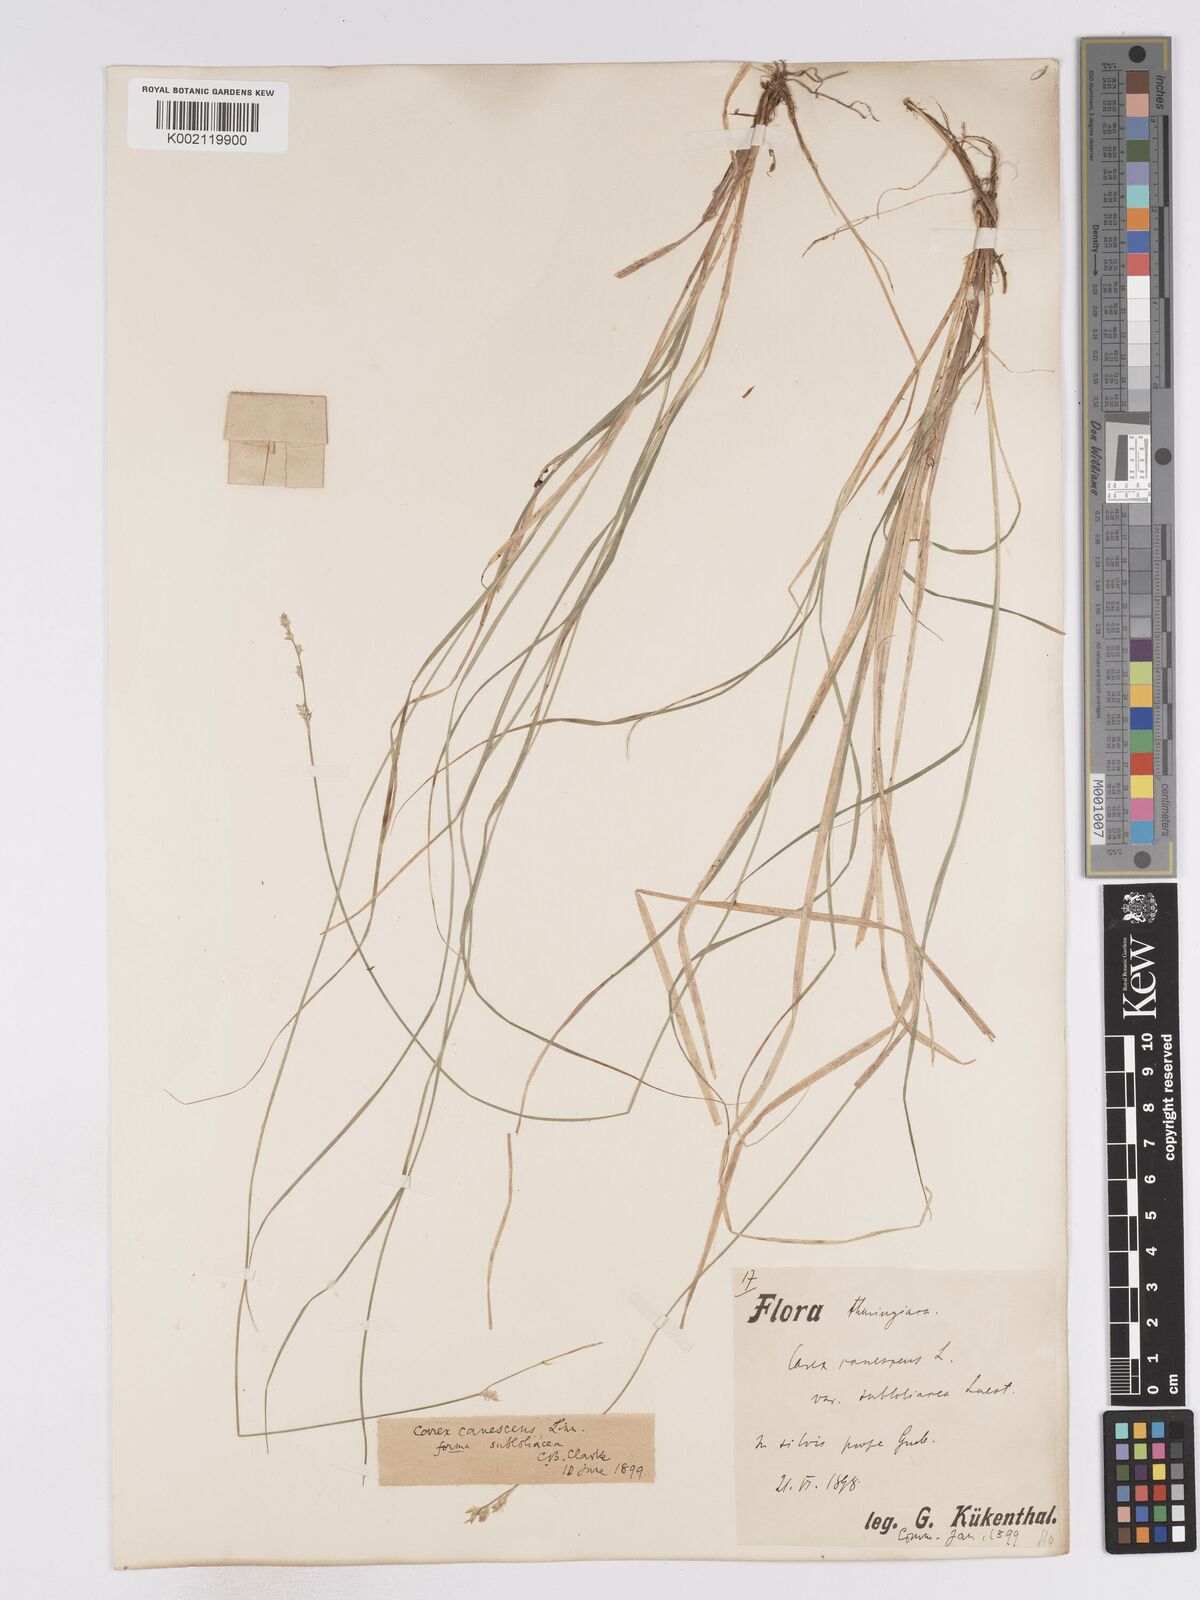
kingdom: Plantae
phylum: Tracheophyta
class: Liliopsida
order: Poales
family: Cyperaceae
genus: Carex
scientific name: Carex lapponica
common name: Lapland sedge
